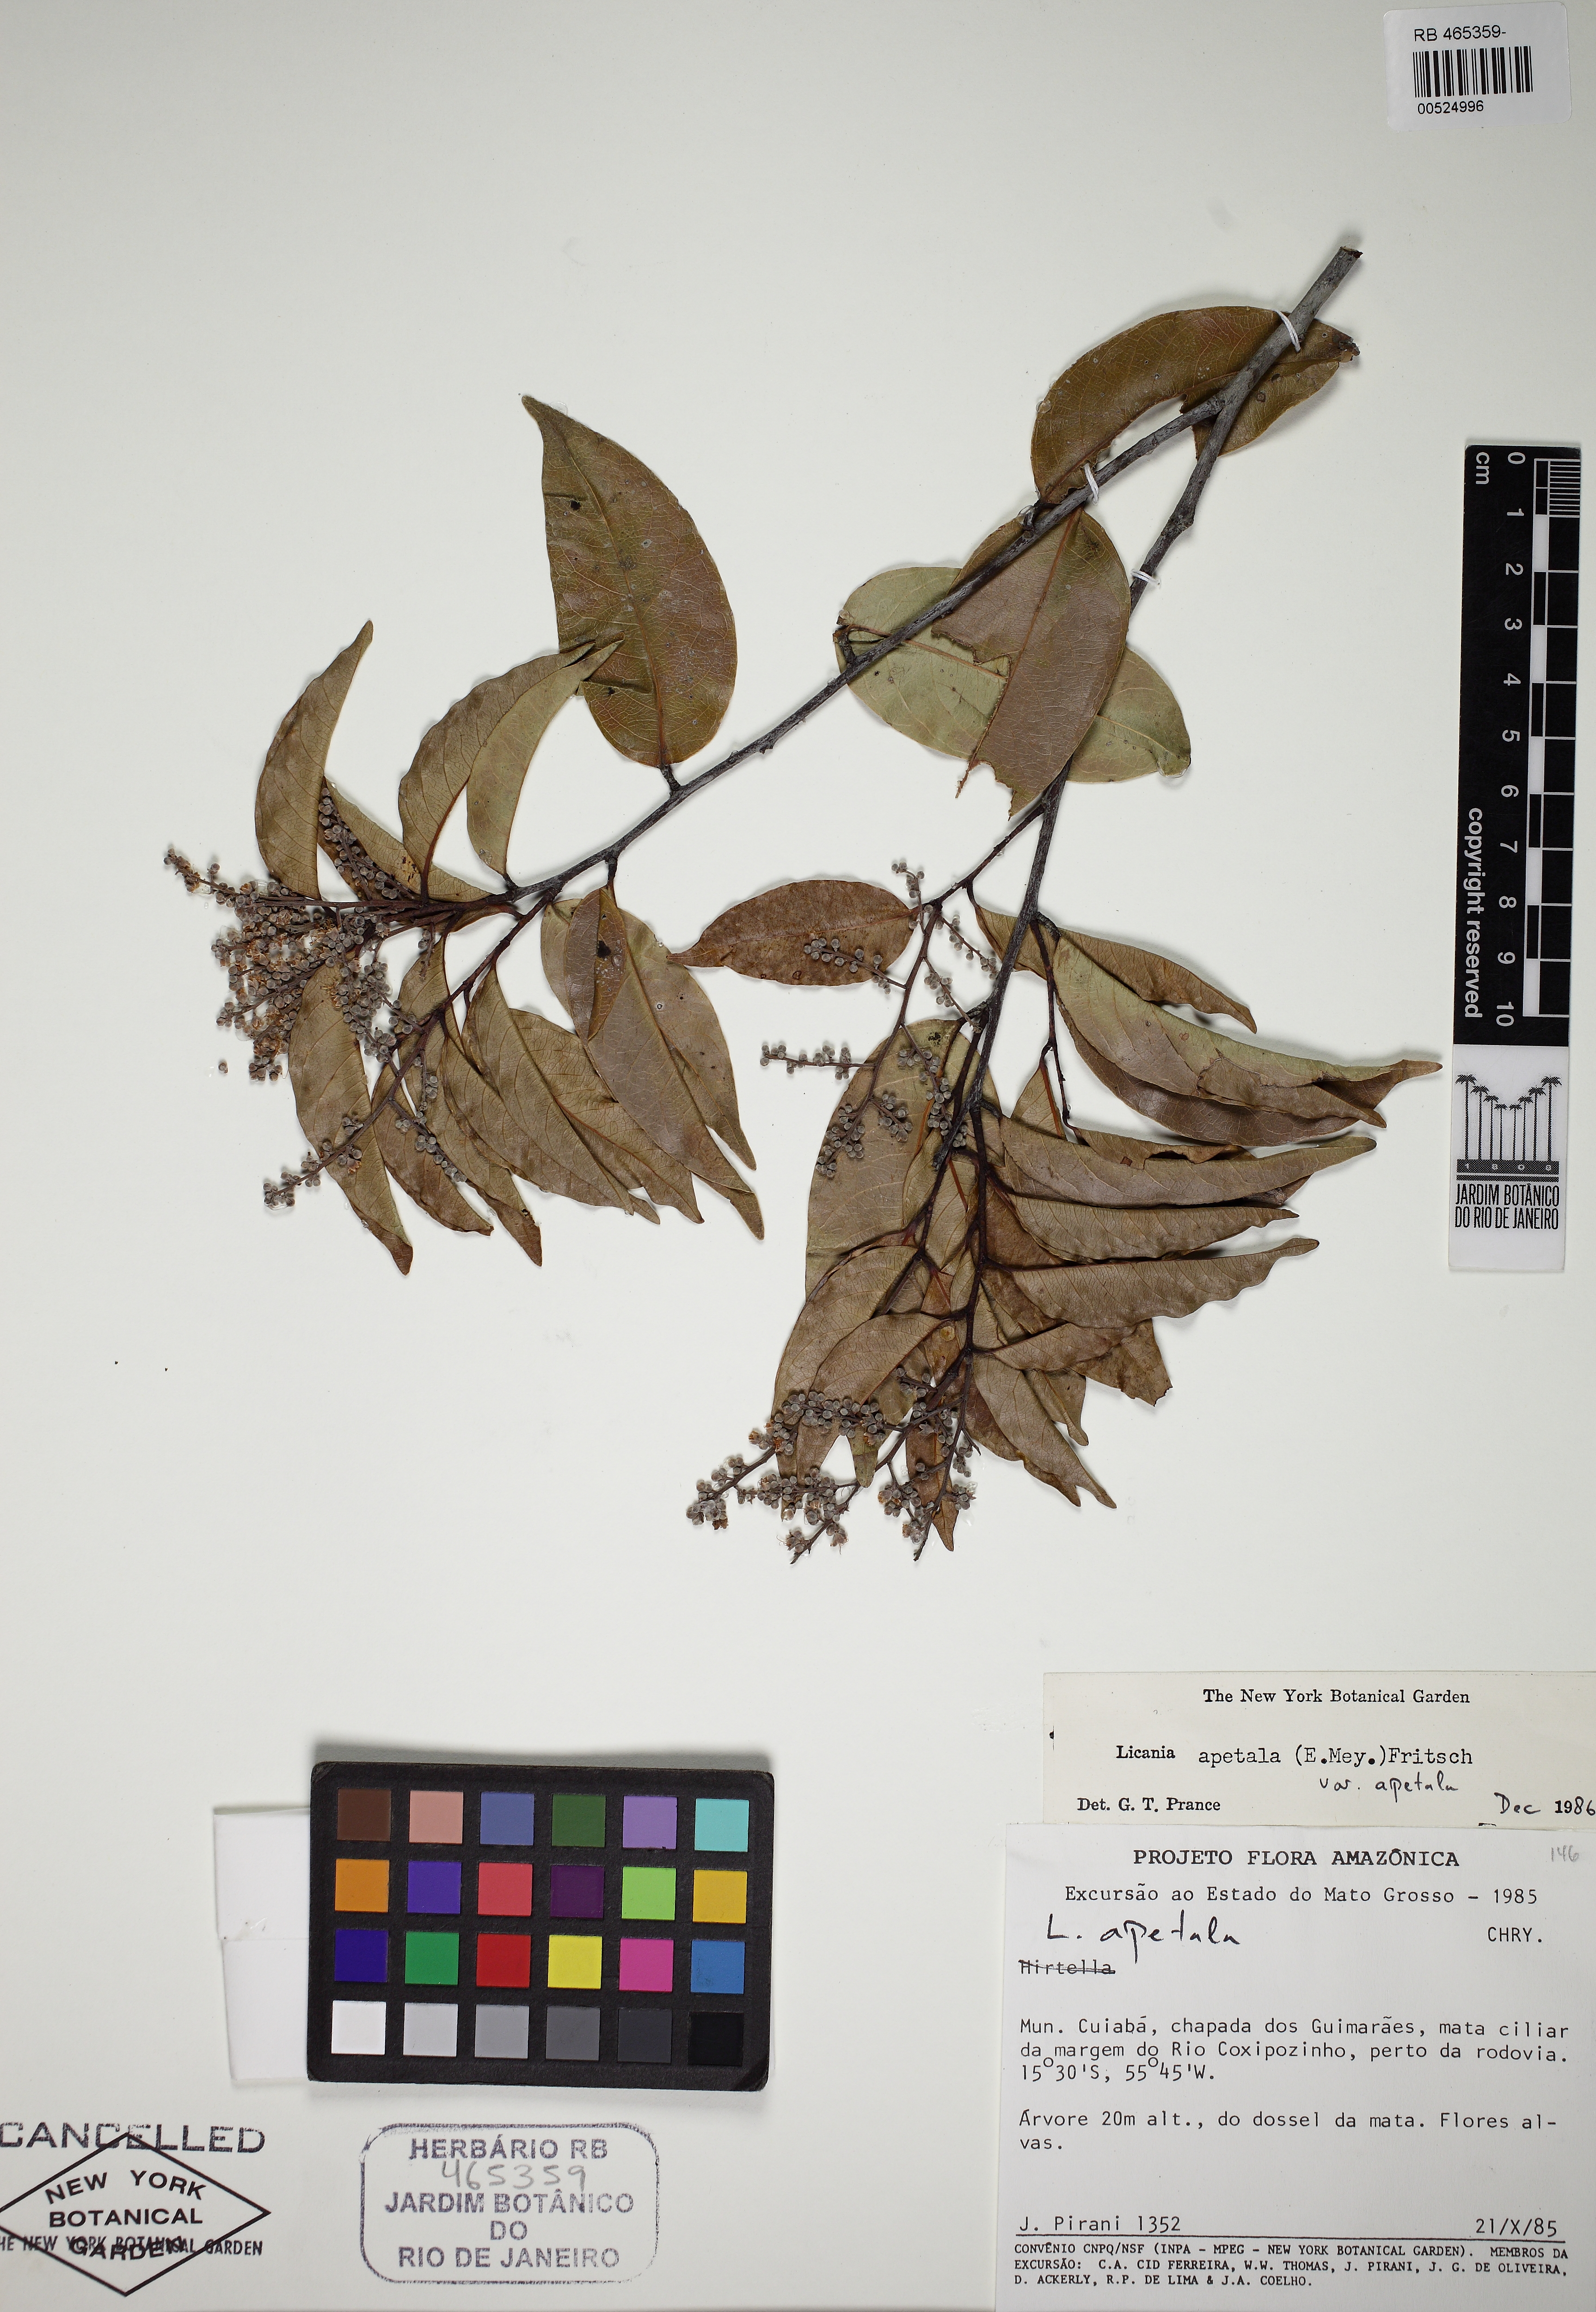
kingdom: Plantae
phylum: Tracheophyta
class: Magnoliopsida
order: Malpighiales
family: Chrysobalanaceae
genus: Leptobalanus
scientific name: Leptobalanus apetalus
